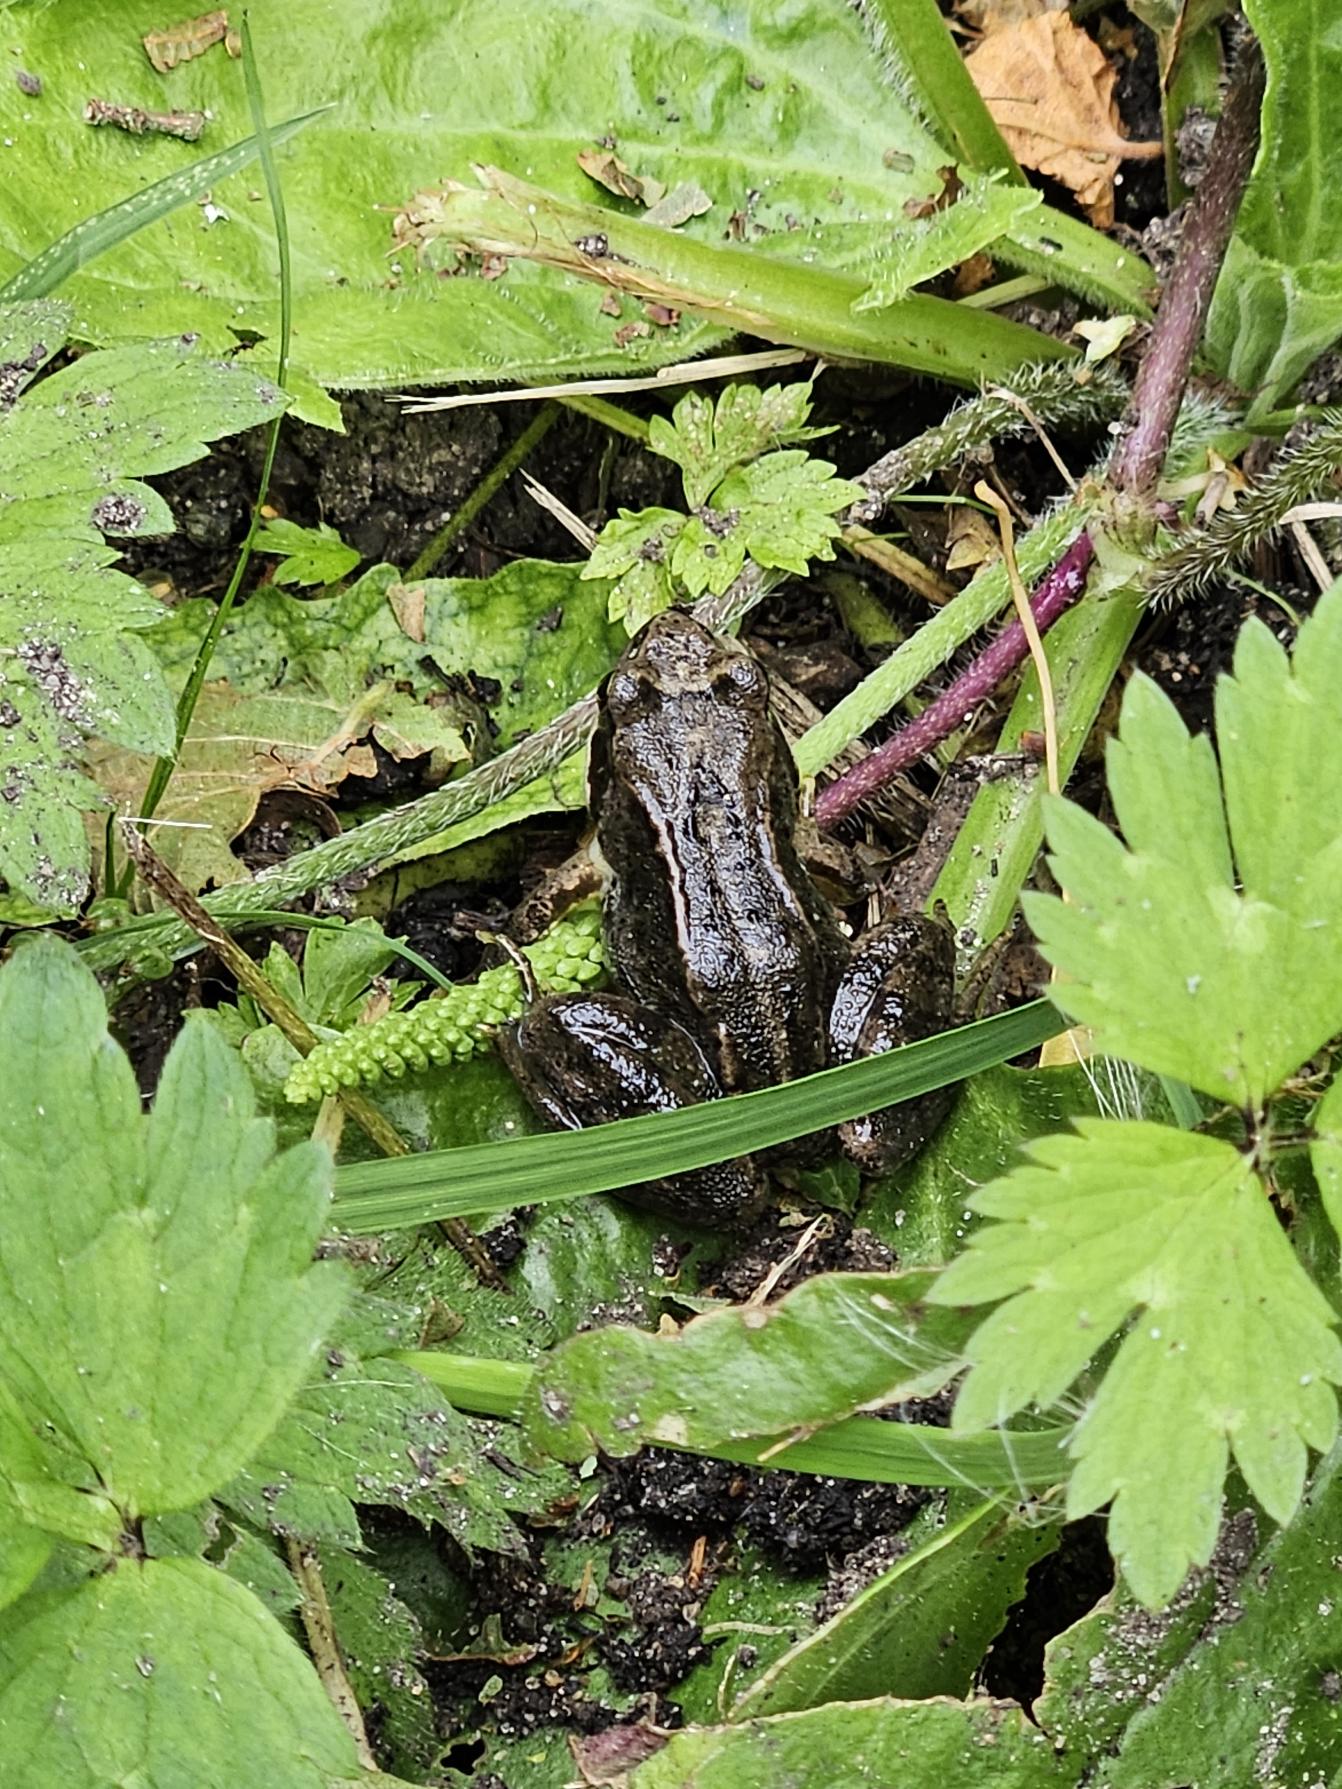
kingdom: Animalia
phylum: Chordata
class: Amphibia
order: Anura
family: Ranidae
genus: Rana
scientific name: Rana temporaria
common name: Butsnudet frø
